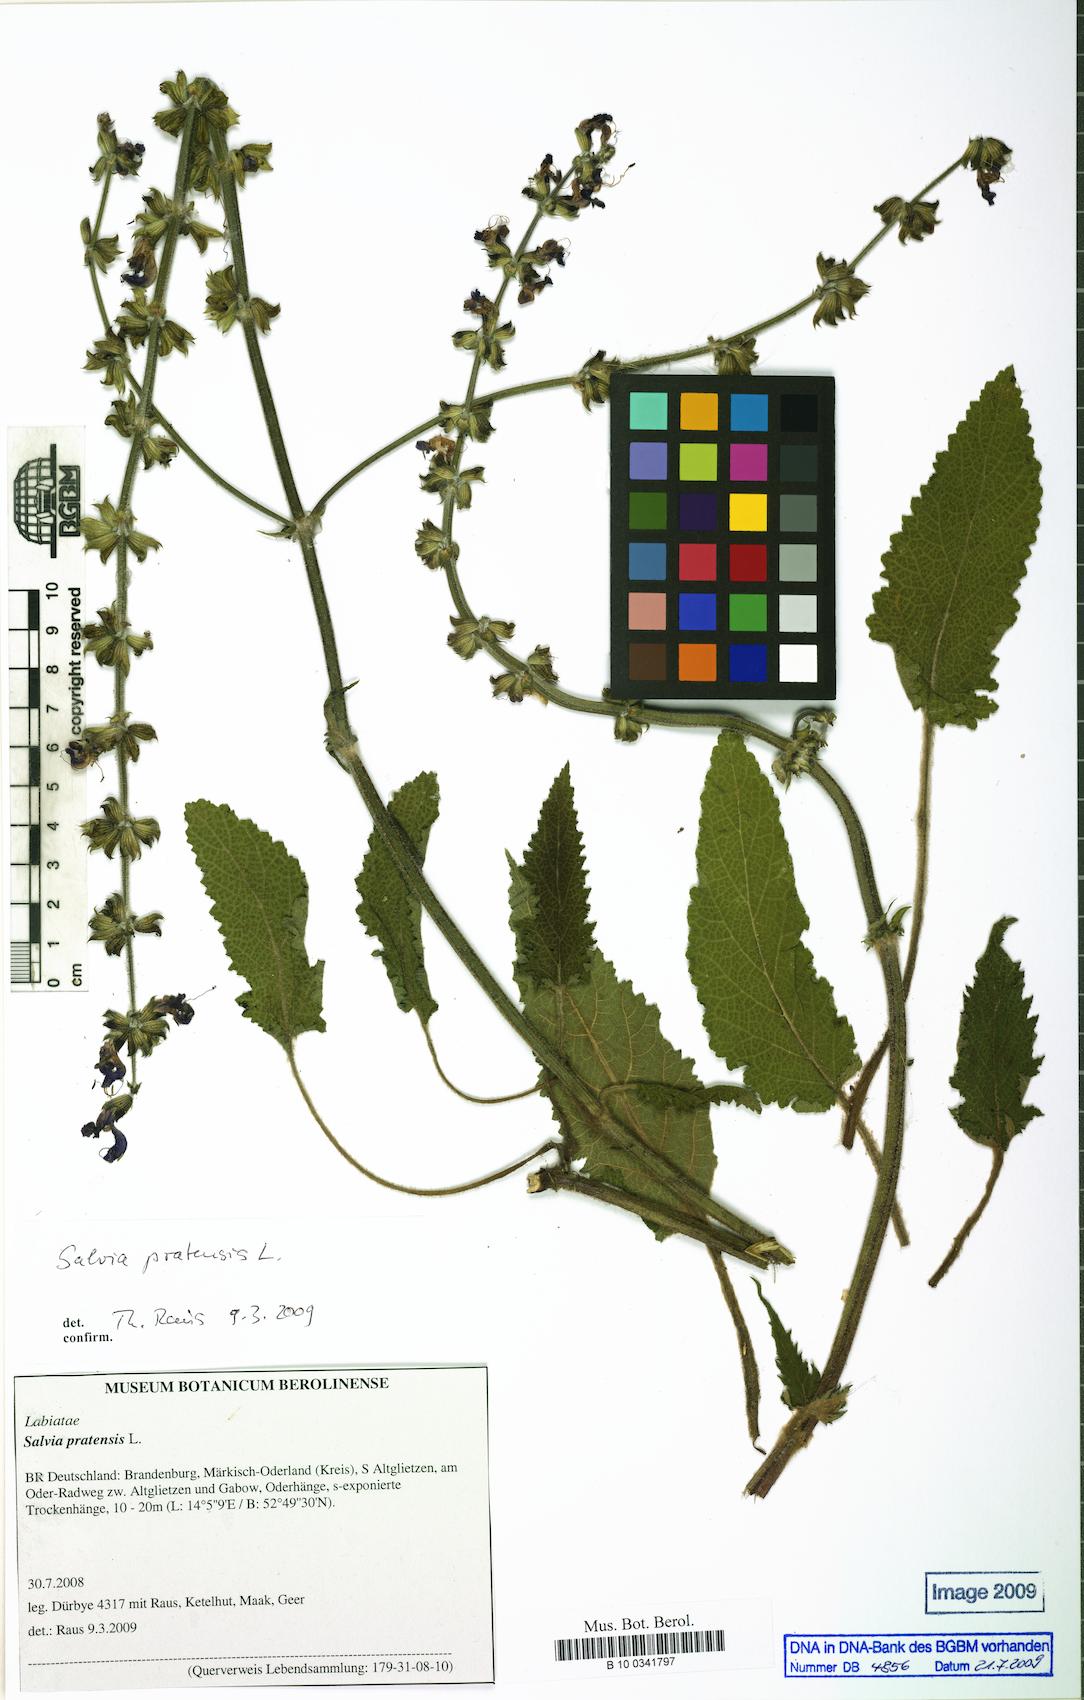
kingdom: Plantae
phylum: Tracheophyta
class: Magnoliopsida
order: Lamiales
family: Lamiaceae
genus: Salvia
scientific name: Salvia pratensis
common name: Meadow sage
